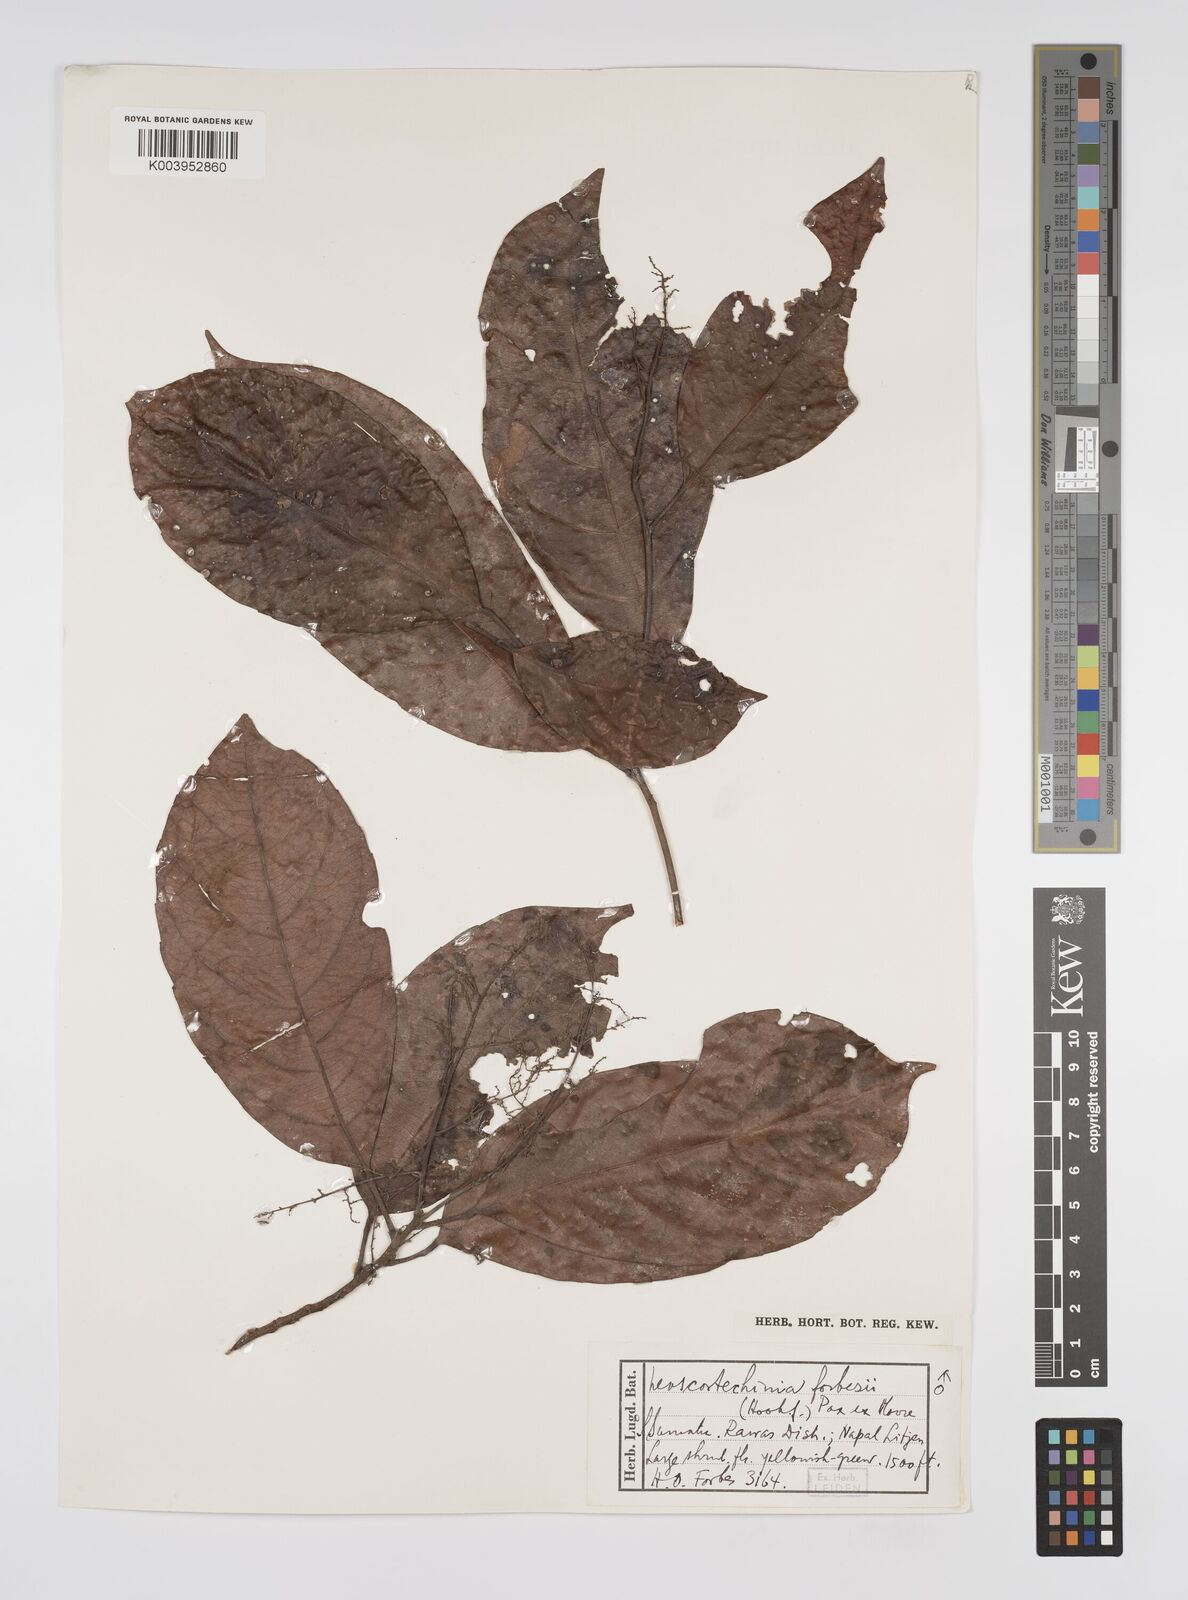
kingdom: Plantae
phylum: Tracheophyta
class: Magnoliopsida
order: Malpighiales
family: Euphorbiaceae
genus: Neoscortechinia
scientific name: Neoscortechinia philippinensis
